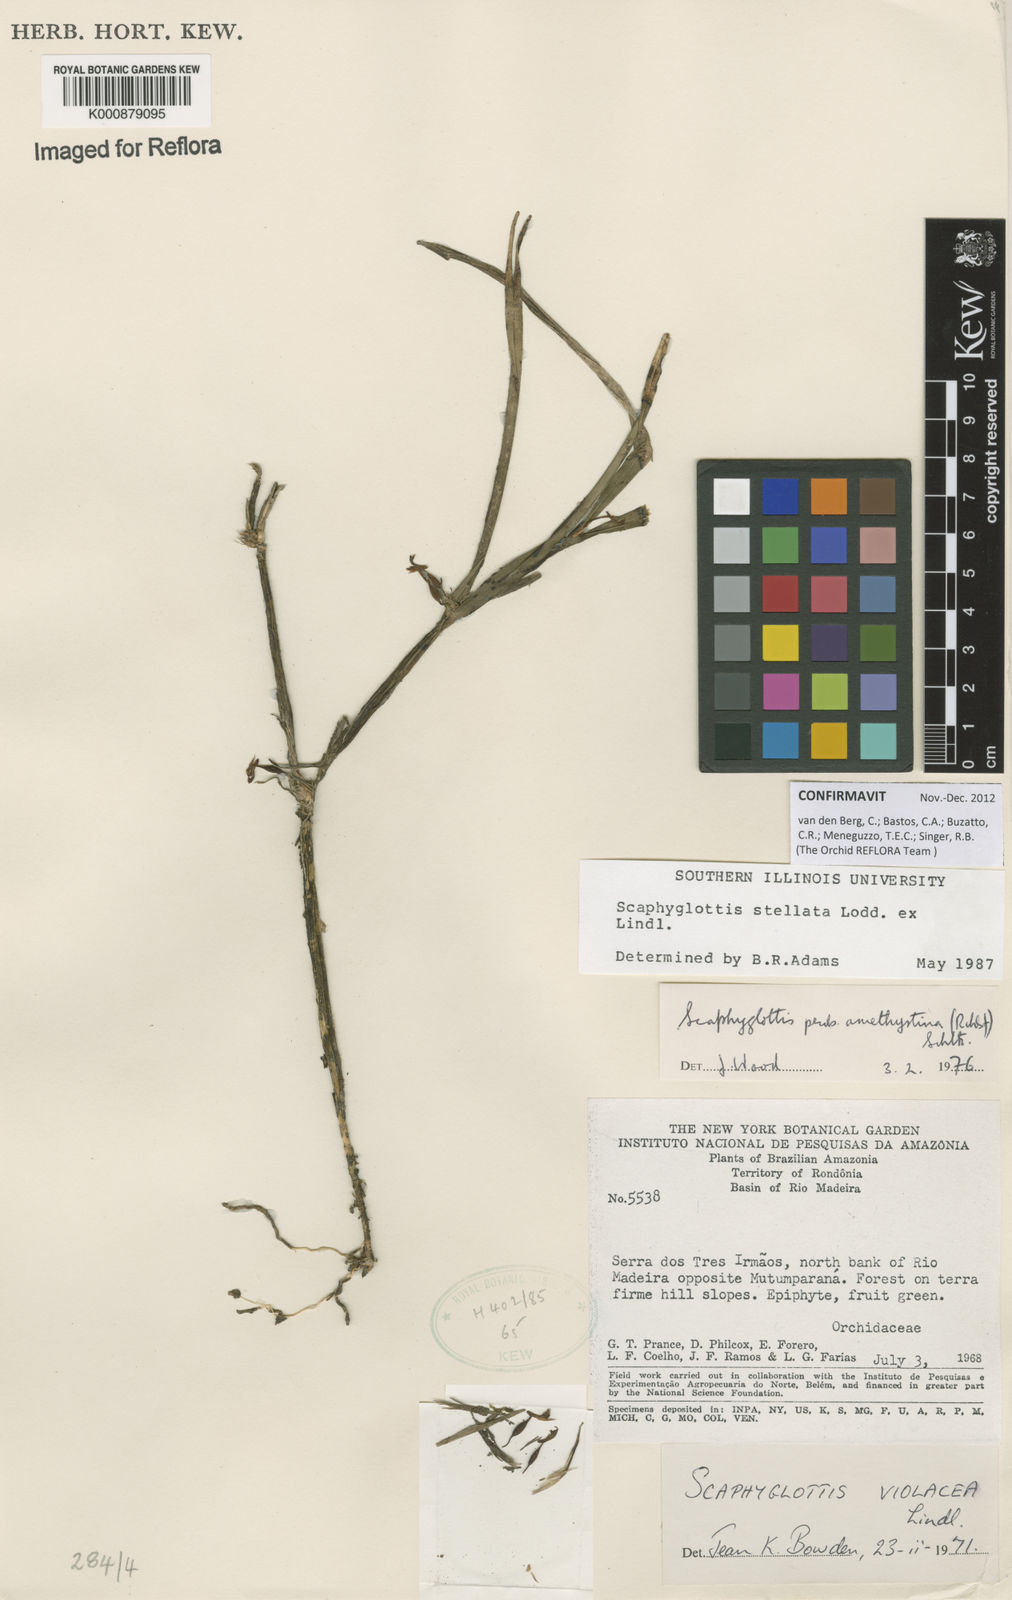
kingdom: Plantae
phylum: Tracheophyta
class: Liliopsida
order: Asparagales
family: Orchidaceae
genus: Scaphyglottis
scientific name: Scaphyglottis stellata
